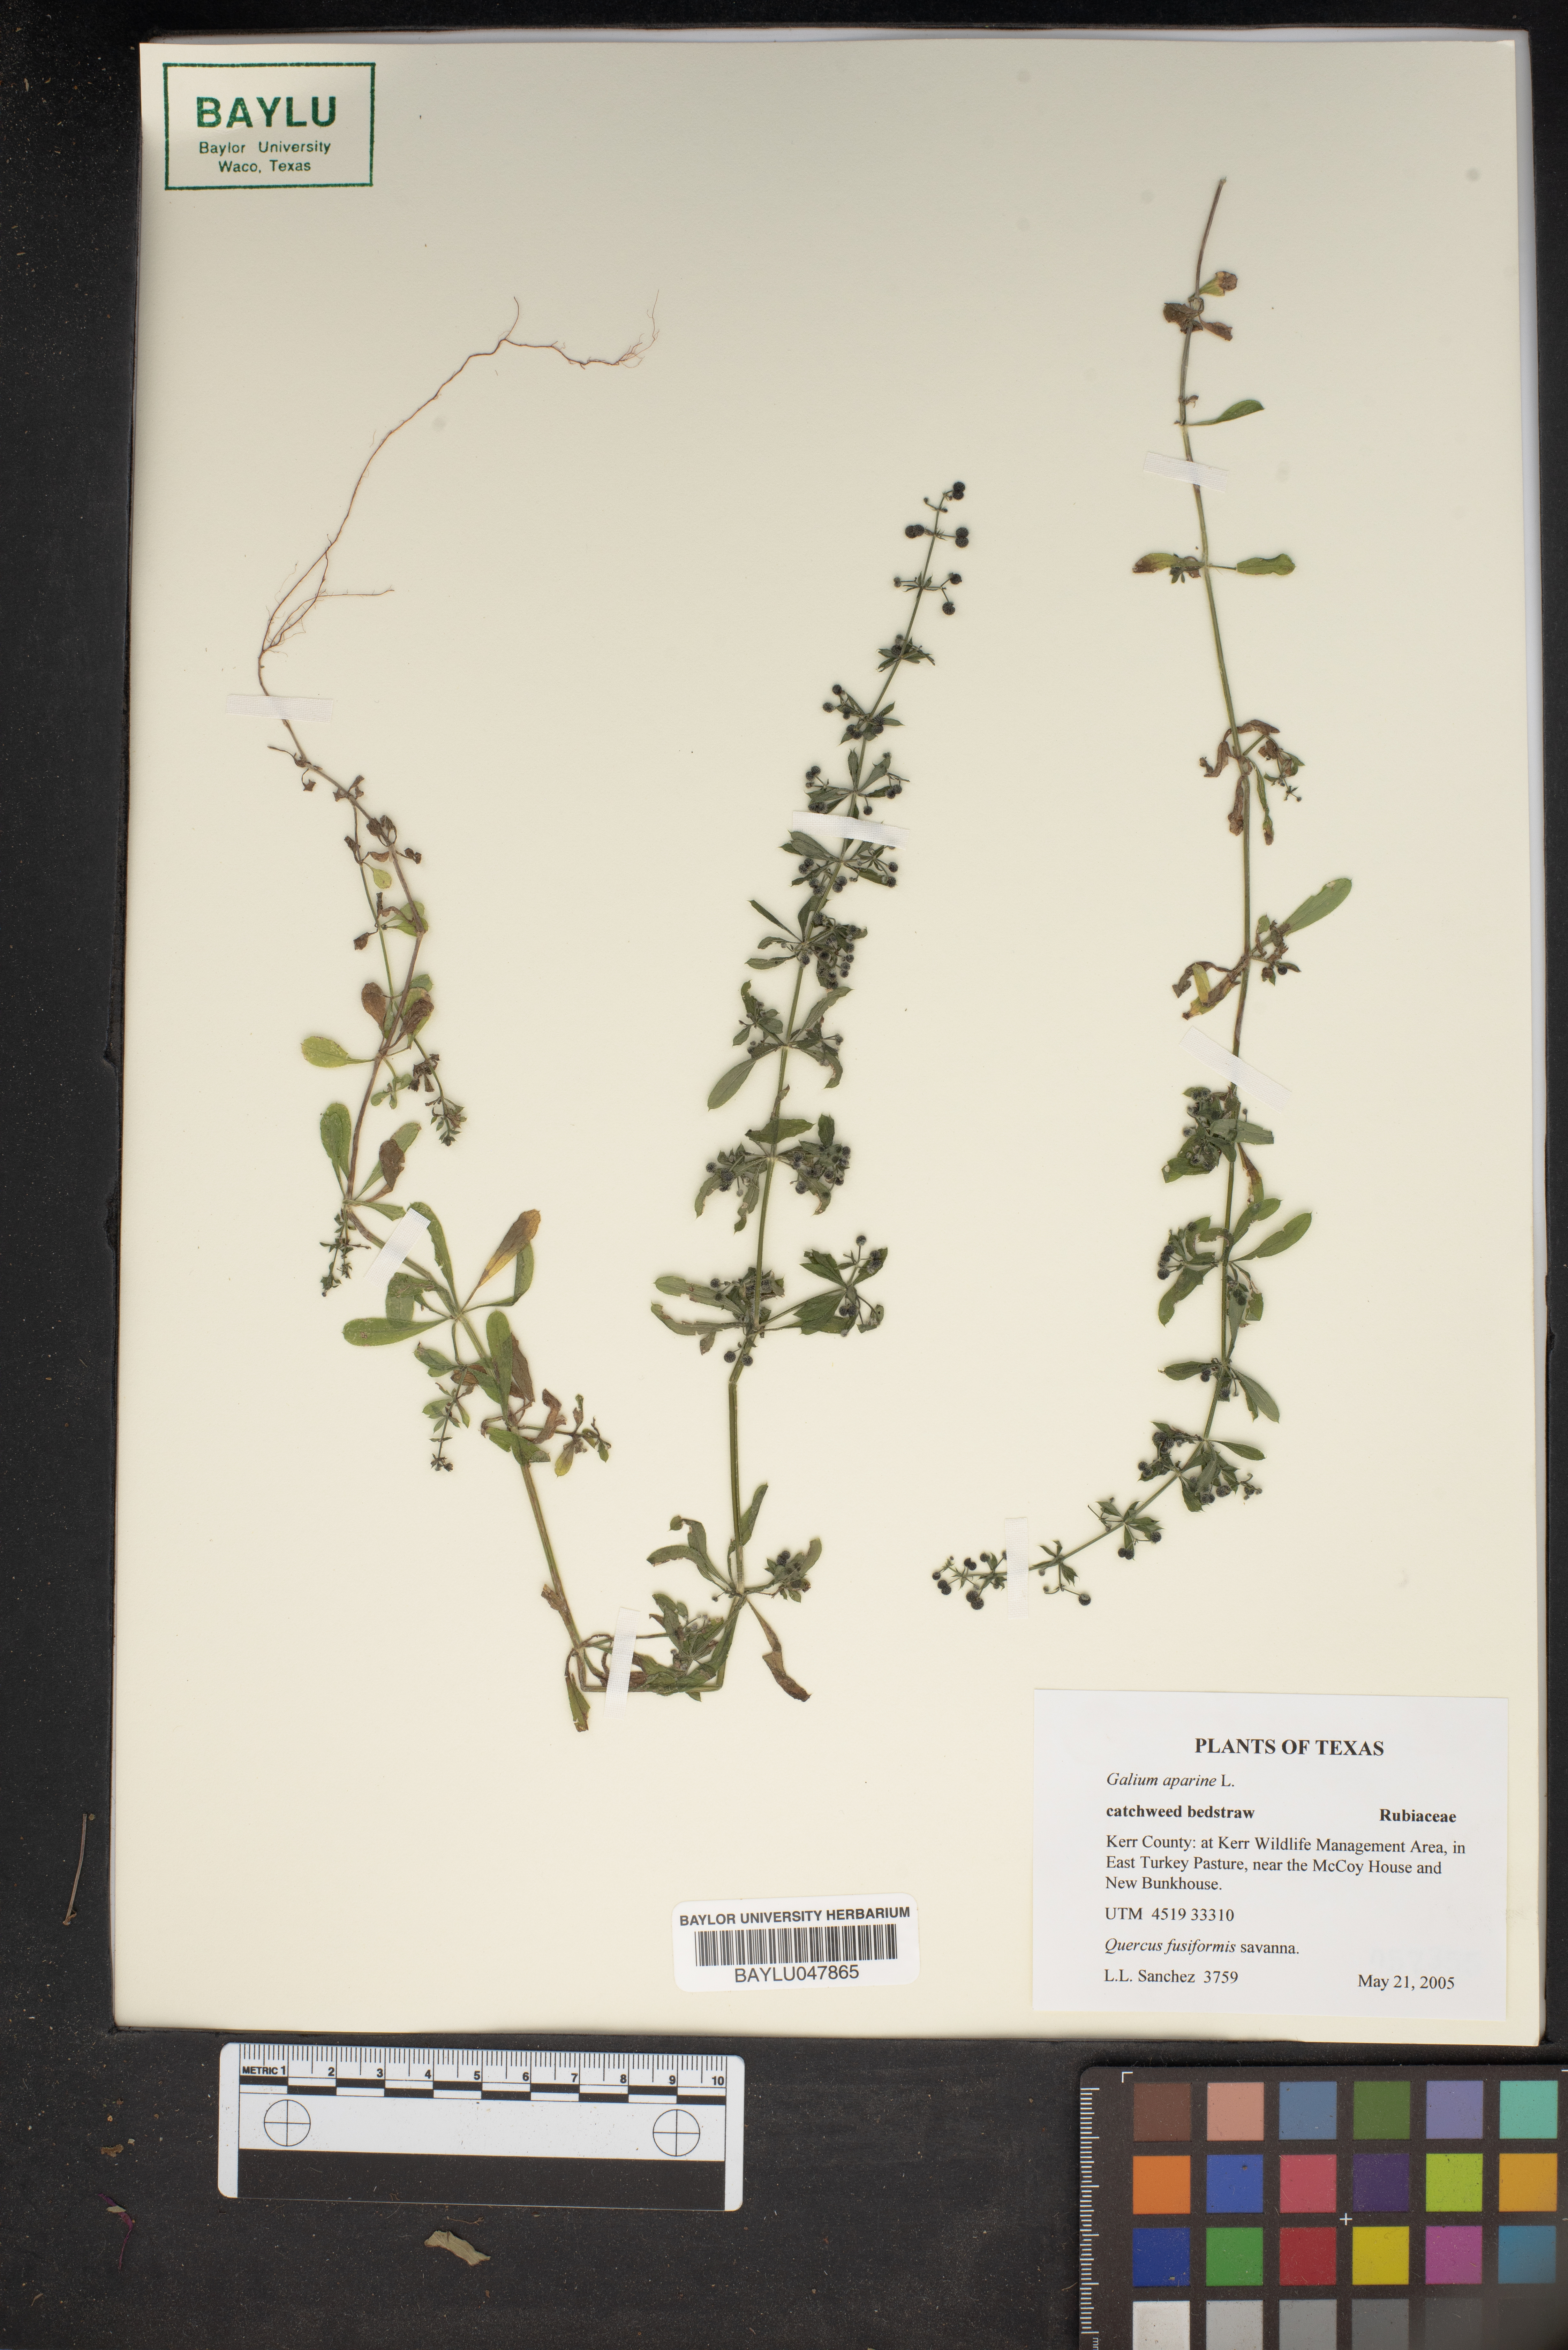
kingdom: Plantae
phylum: Tracheophyta
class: Magnoliopsida
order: Gentianales
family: Rubiaceae
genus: Galium
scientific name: Galium aparine
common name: Cleavers
